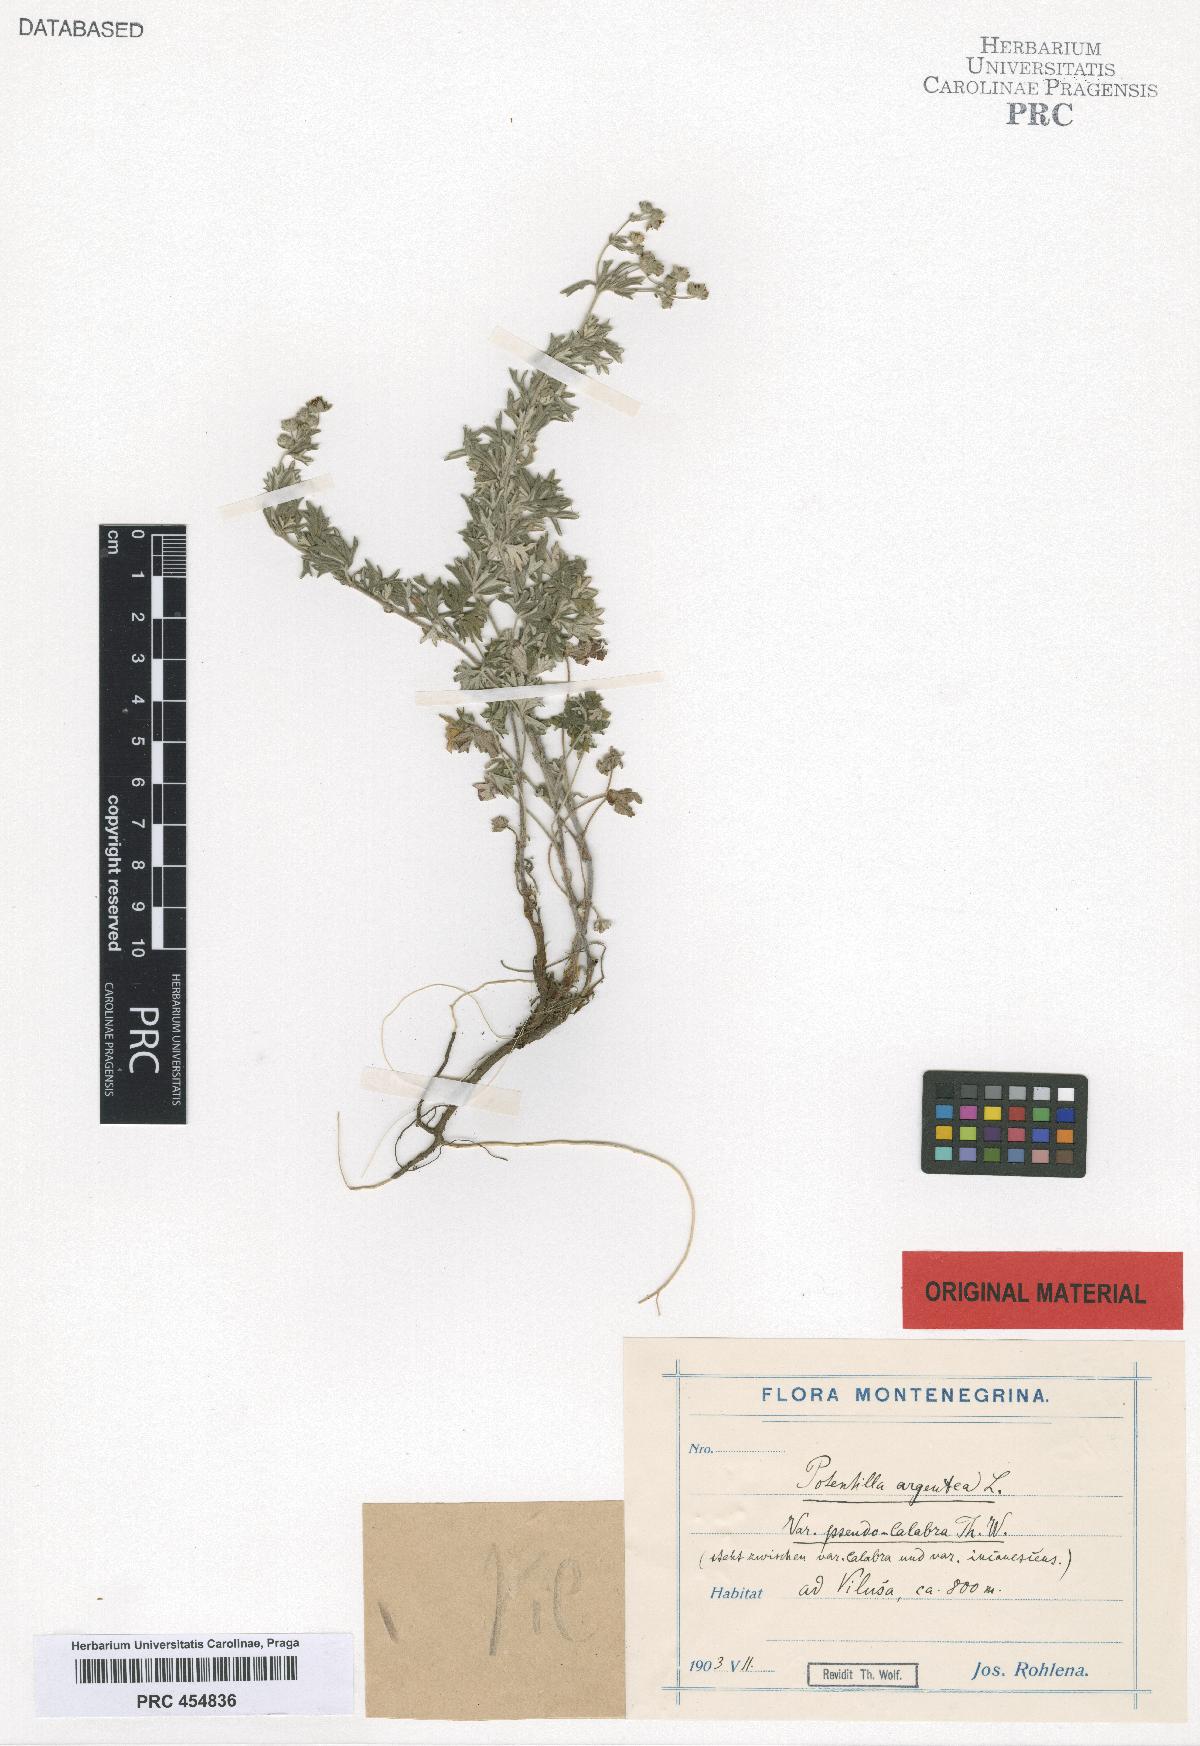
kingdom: Plantae
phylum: Tracheophyta
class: Magnoliopsida
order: Rosales
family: Rosaceae
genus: Potentilla
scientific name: Potentilla neglecta
